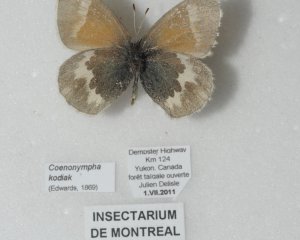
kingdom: Animalia
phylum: Arthropoda
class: Insecta
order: Lepidoptera
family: Nymphalidae
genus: Coenonympha
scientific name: Coenonympha tullia
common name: Large Heath
